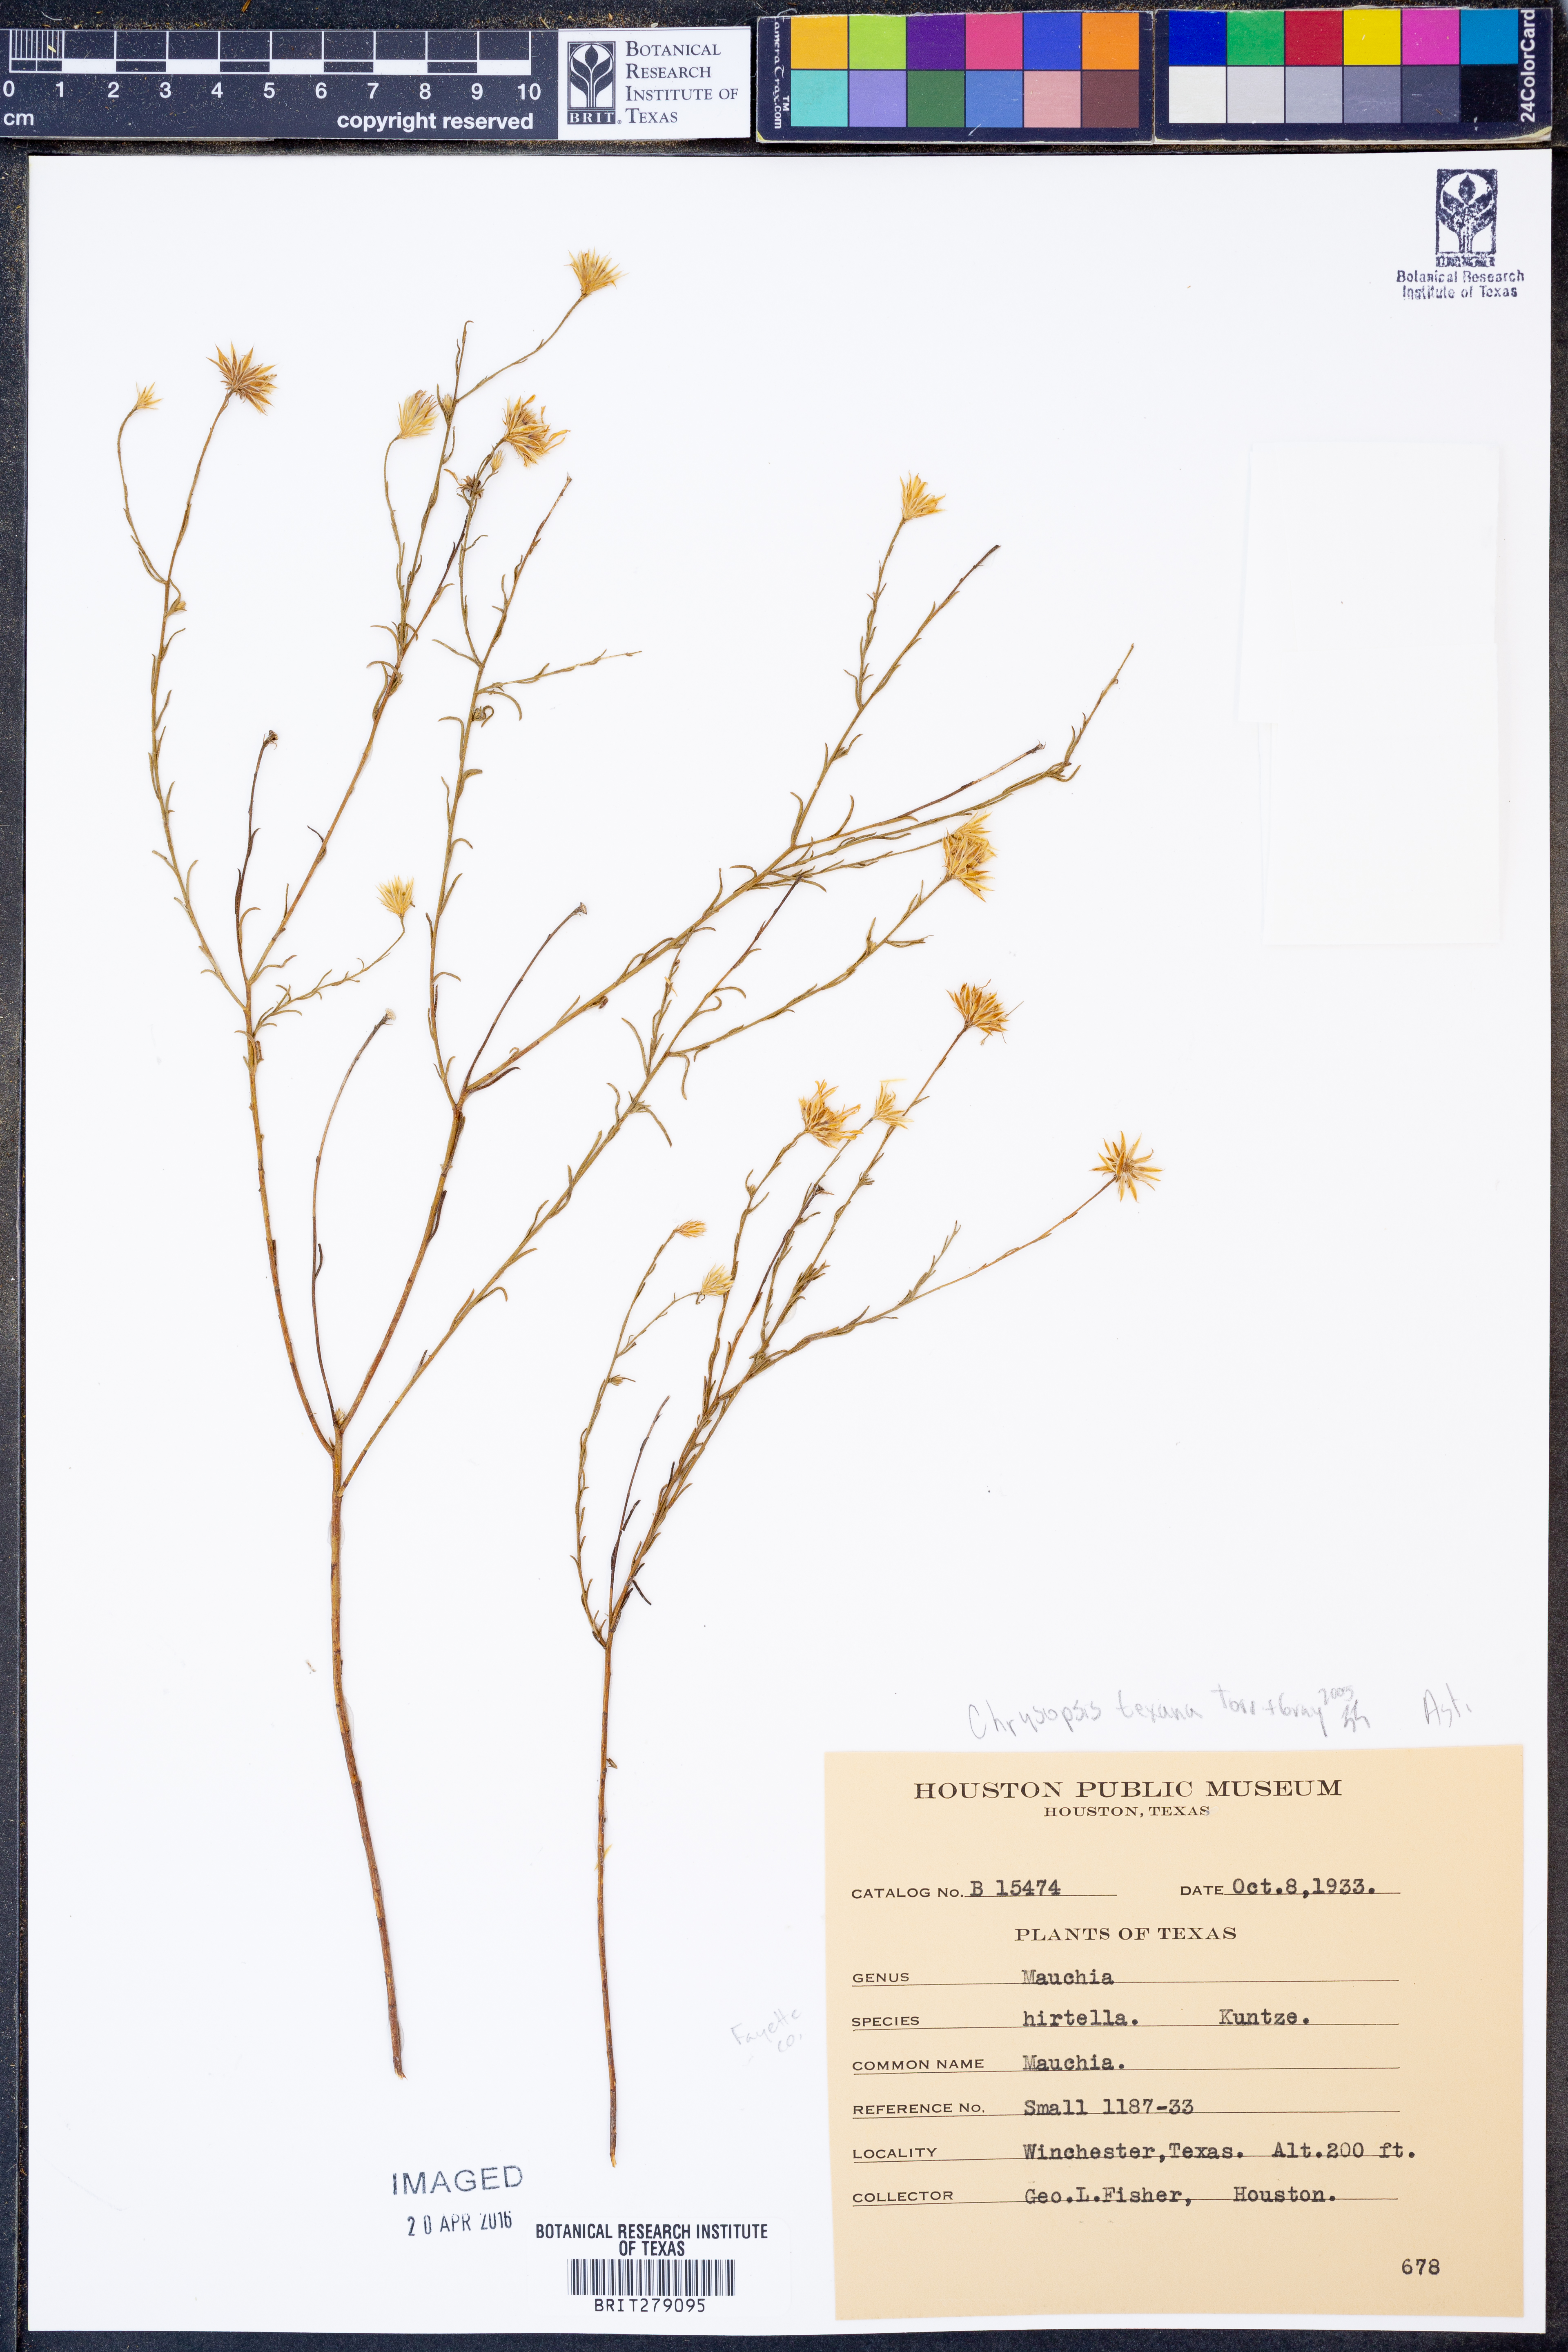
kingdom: Plantae
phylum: Tracheophyta
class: Magnoliopsida
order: Asterales
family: Asteraceae
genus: Bradburia
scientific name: Bradburia hirtella
